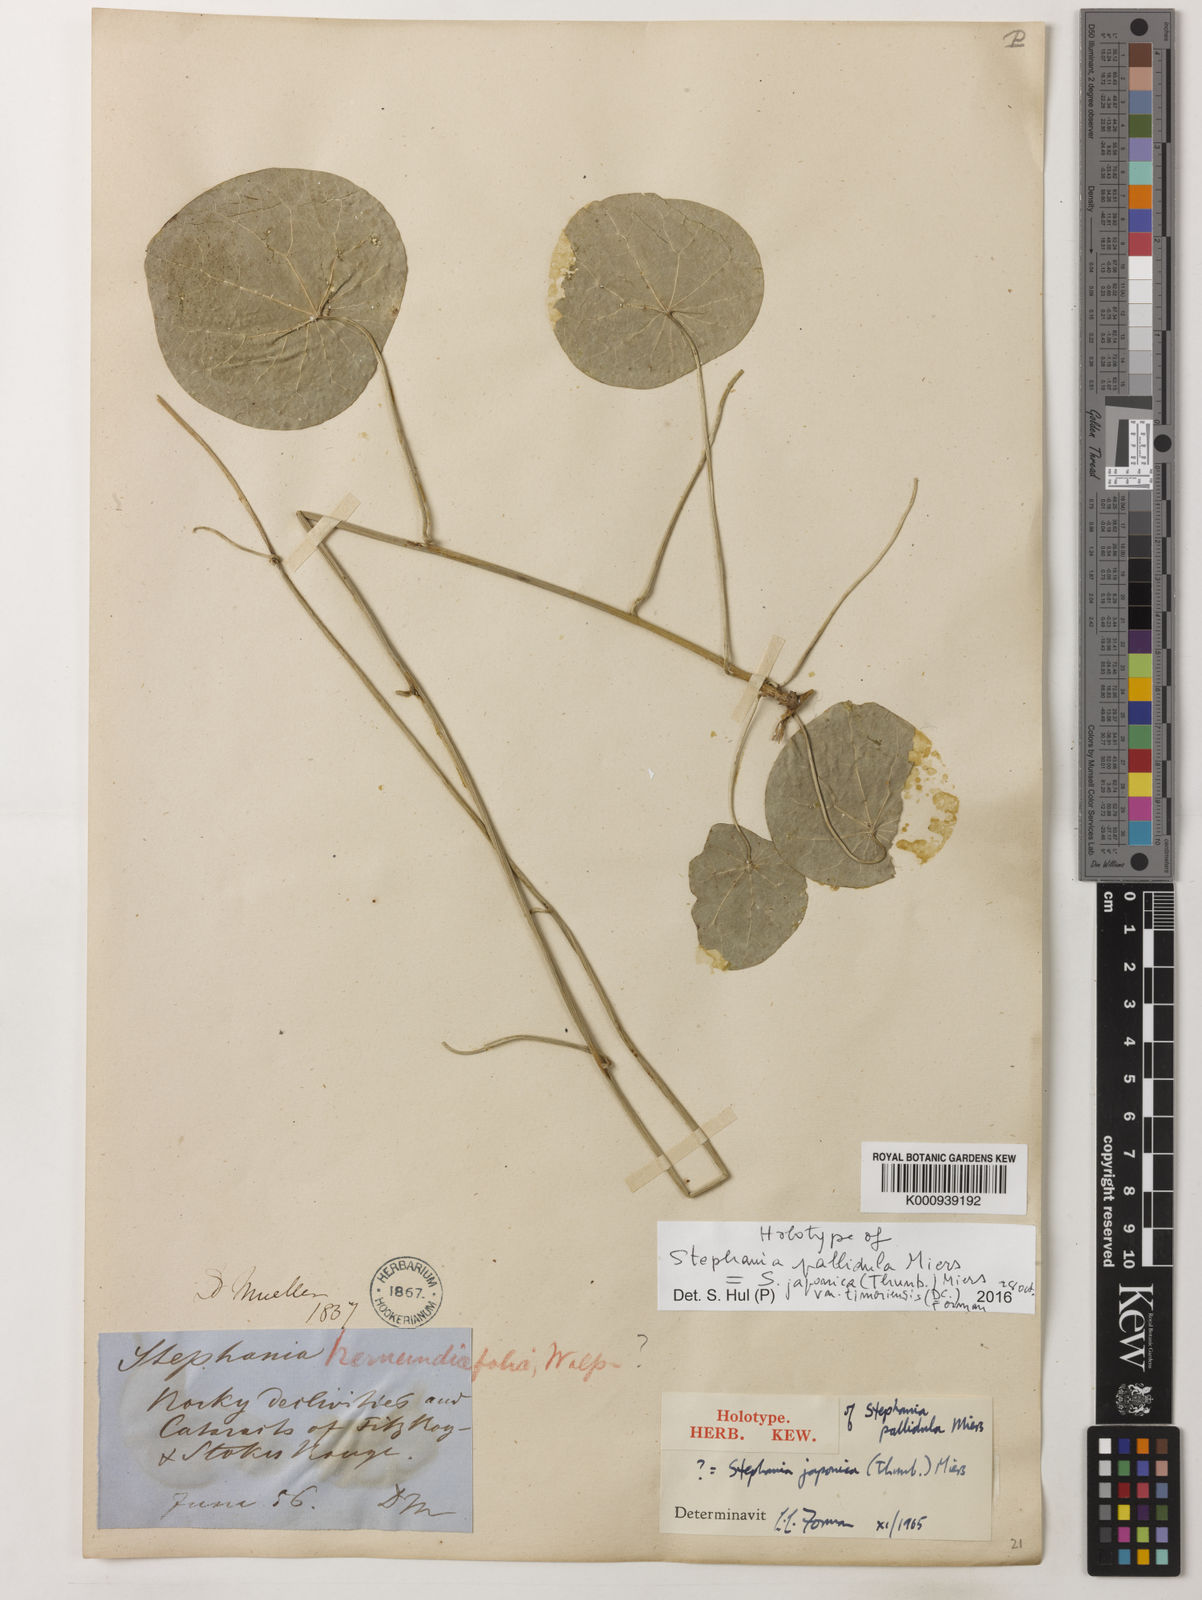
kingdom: Plantae
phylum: Tracheophyta
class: Magnoliopsida
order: Ranunculales
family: Menispermaceae
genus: Stephania
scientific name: Stephania japonica
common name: Snake vine
